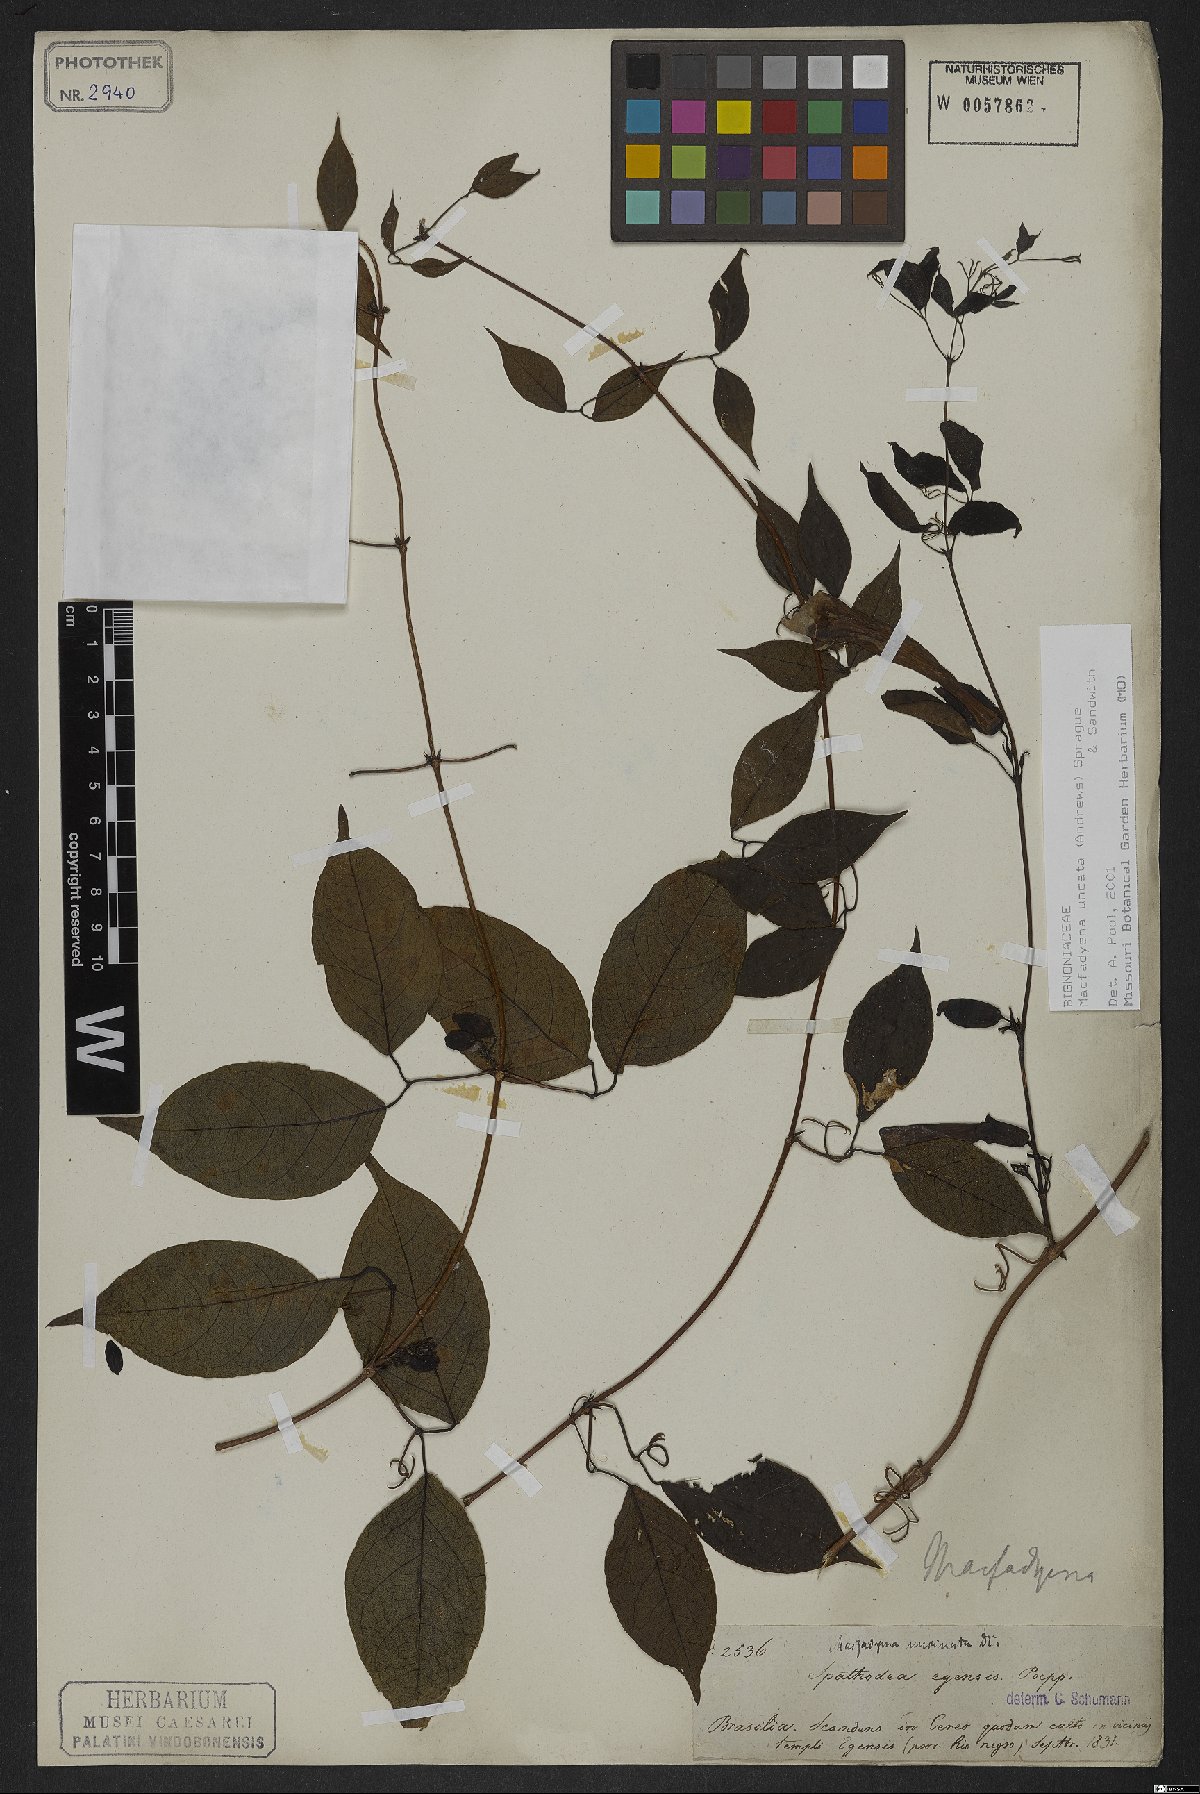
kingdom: Plantae
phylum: Tracheophyta
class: Magnoliopsida
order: Lamiales
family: Bignoniaceae
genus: Dolichandra
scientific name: Dolichandra uncata
